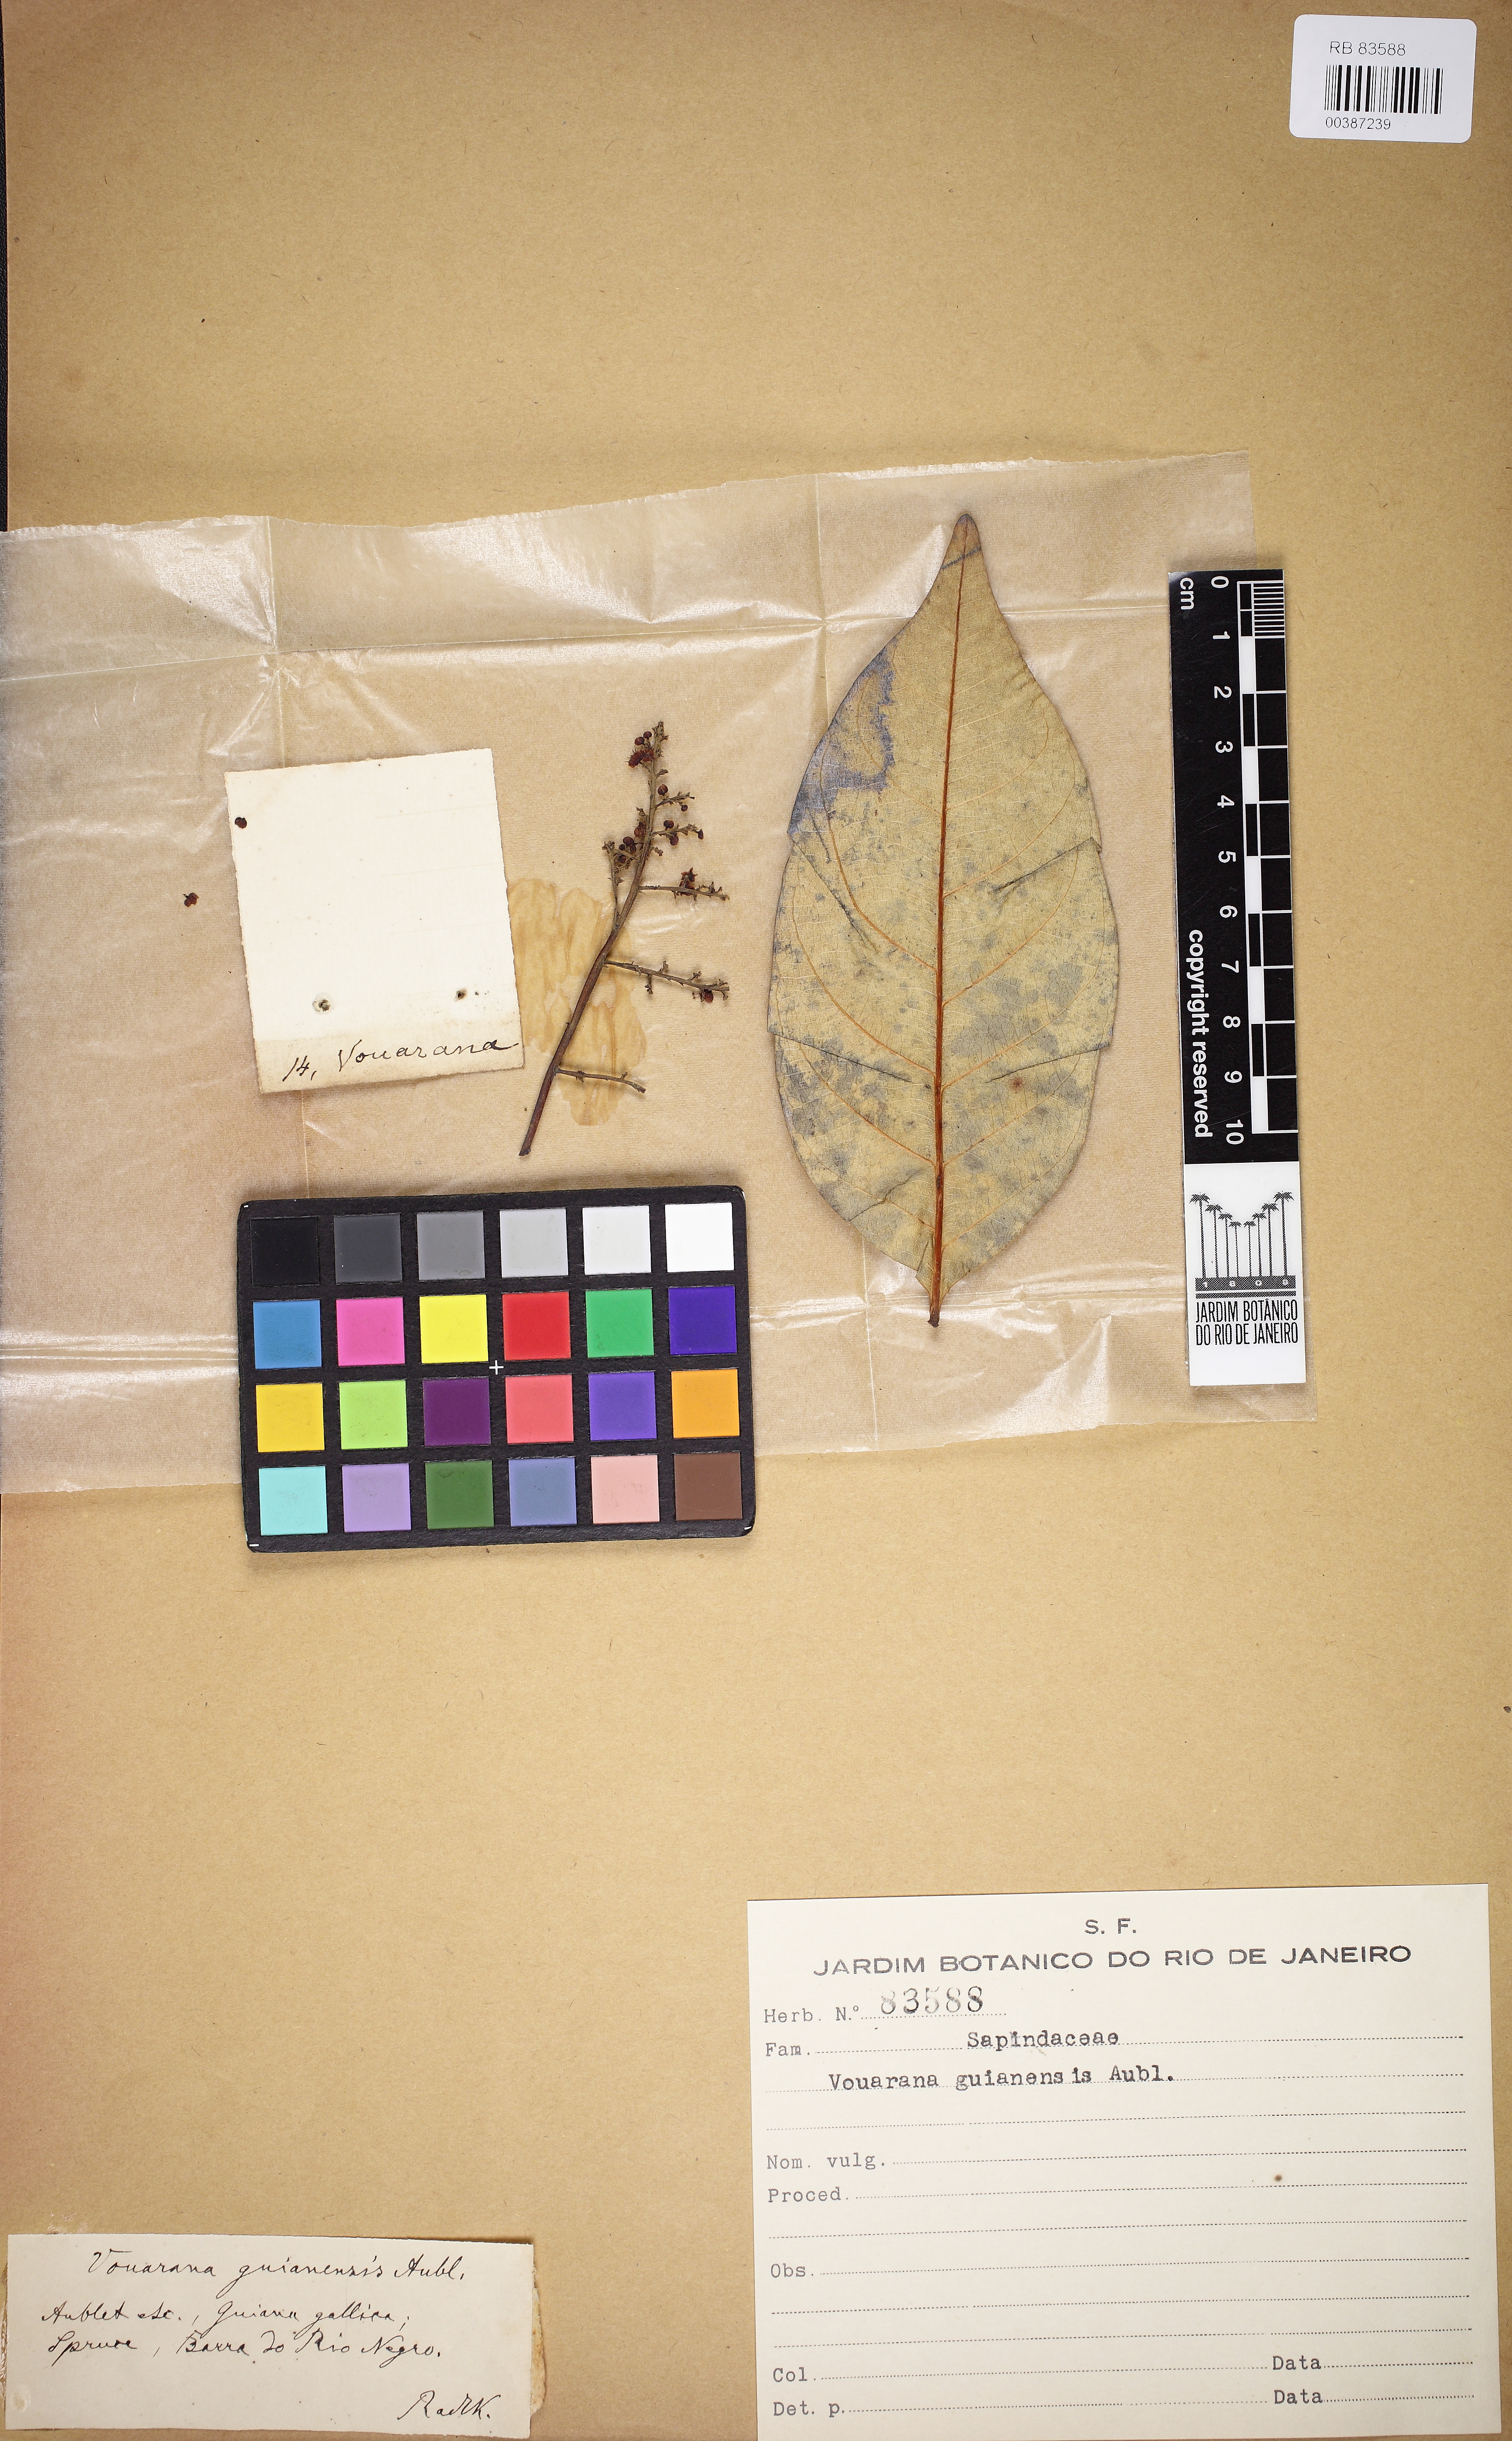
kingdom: Plantae
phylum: Tracheophyta
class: Magnoliopsida
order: Sapindales
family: Sapindaceae
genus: Vouarana
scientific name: Vouarana guianensis
